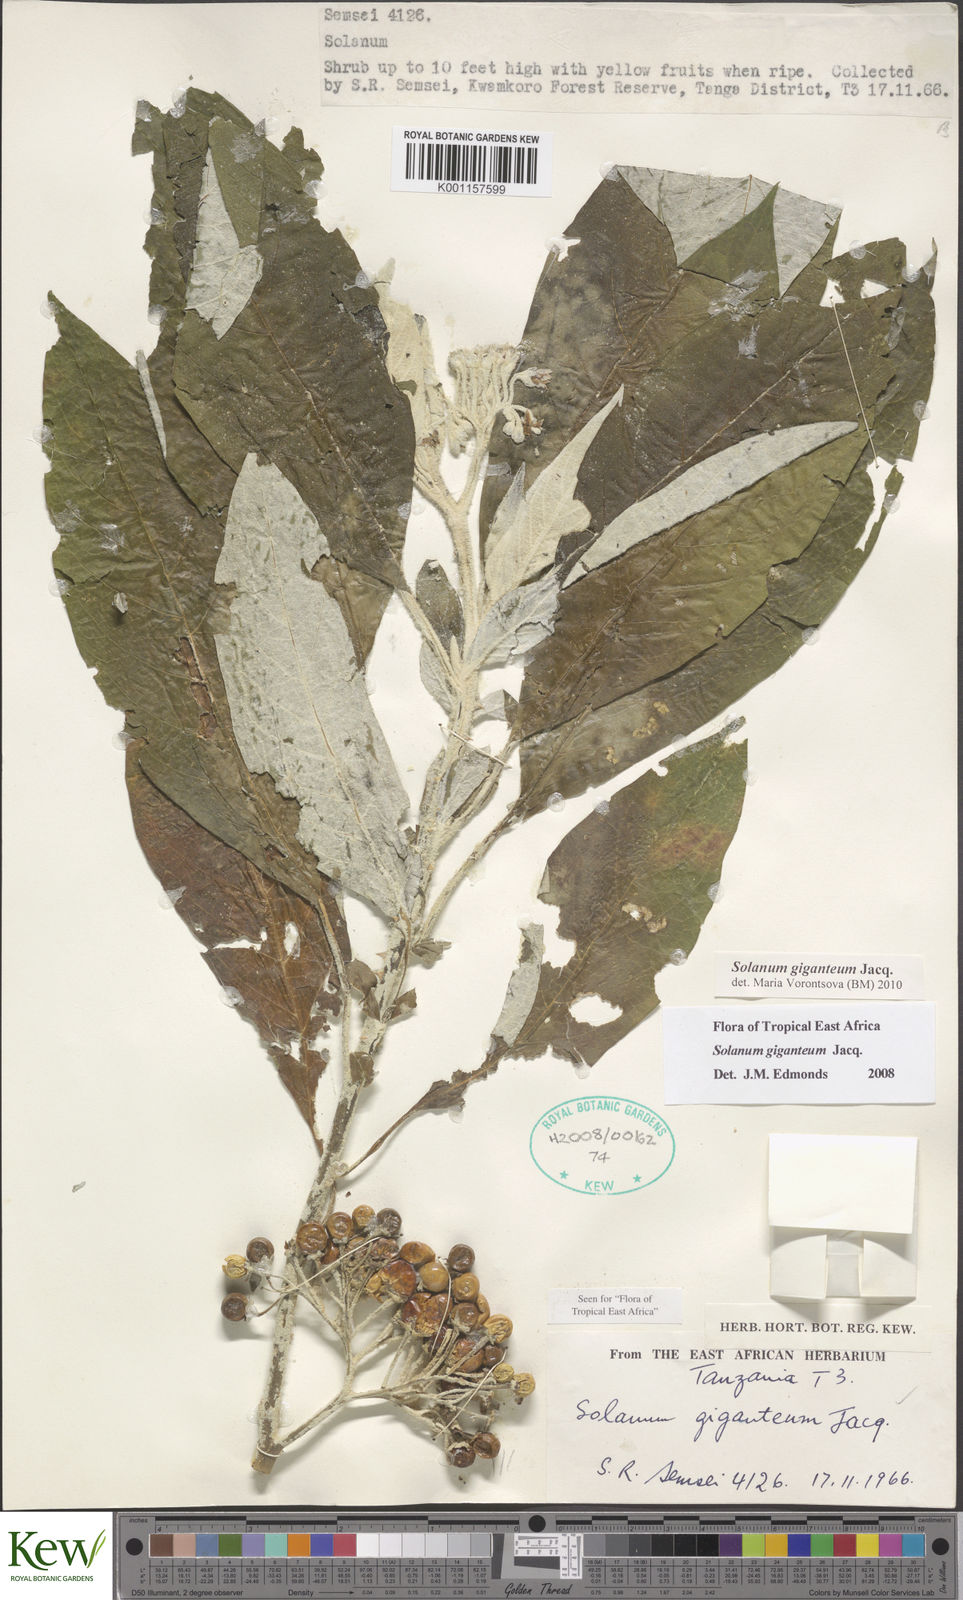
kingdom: Plantae
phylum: Tracheophyta
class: Magnoliopsida
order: Solanales
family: Solanaceae
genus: Solanum
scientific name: Solanum giganteum
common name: Healing-leaf-tree
